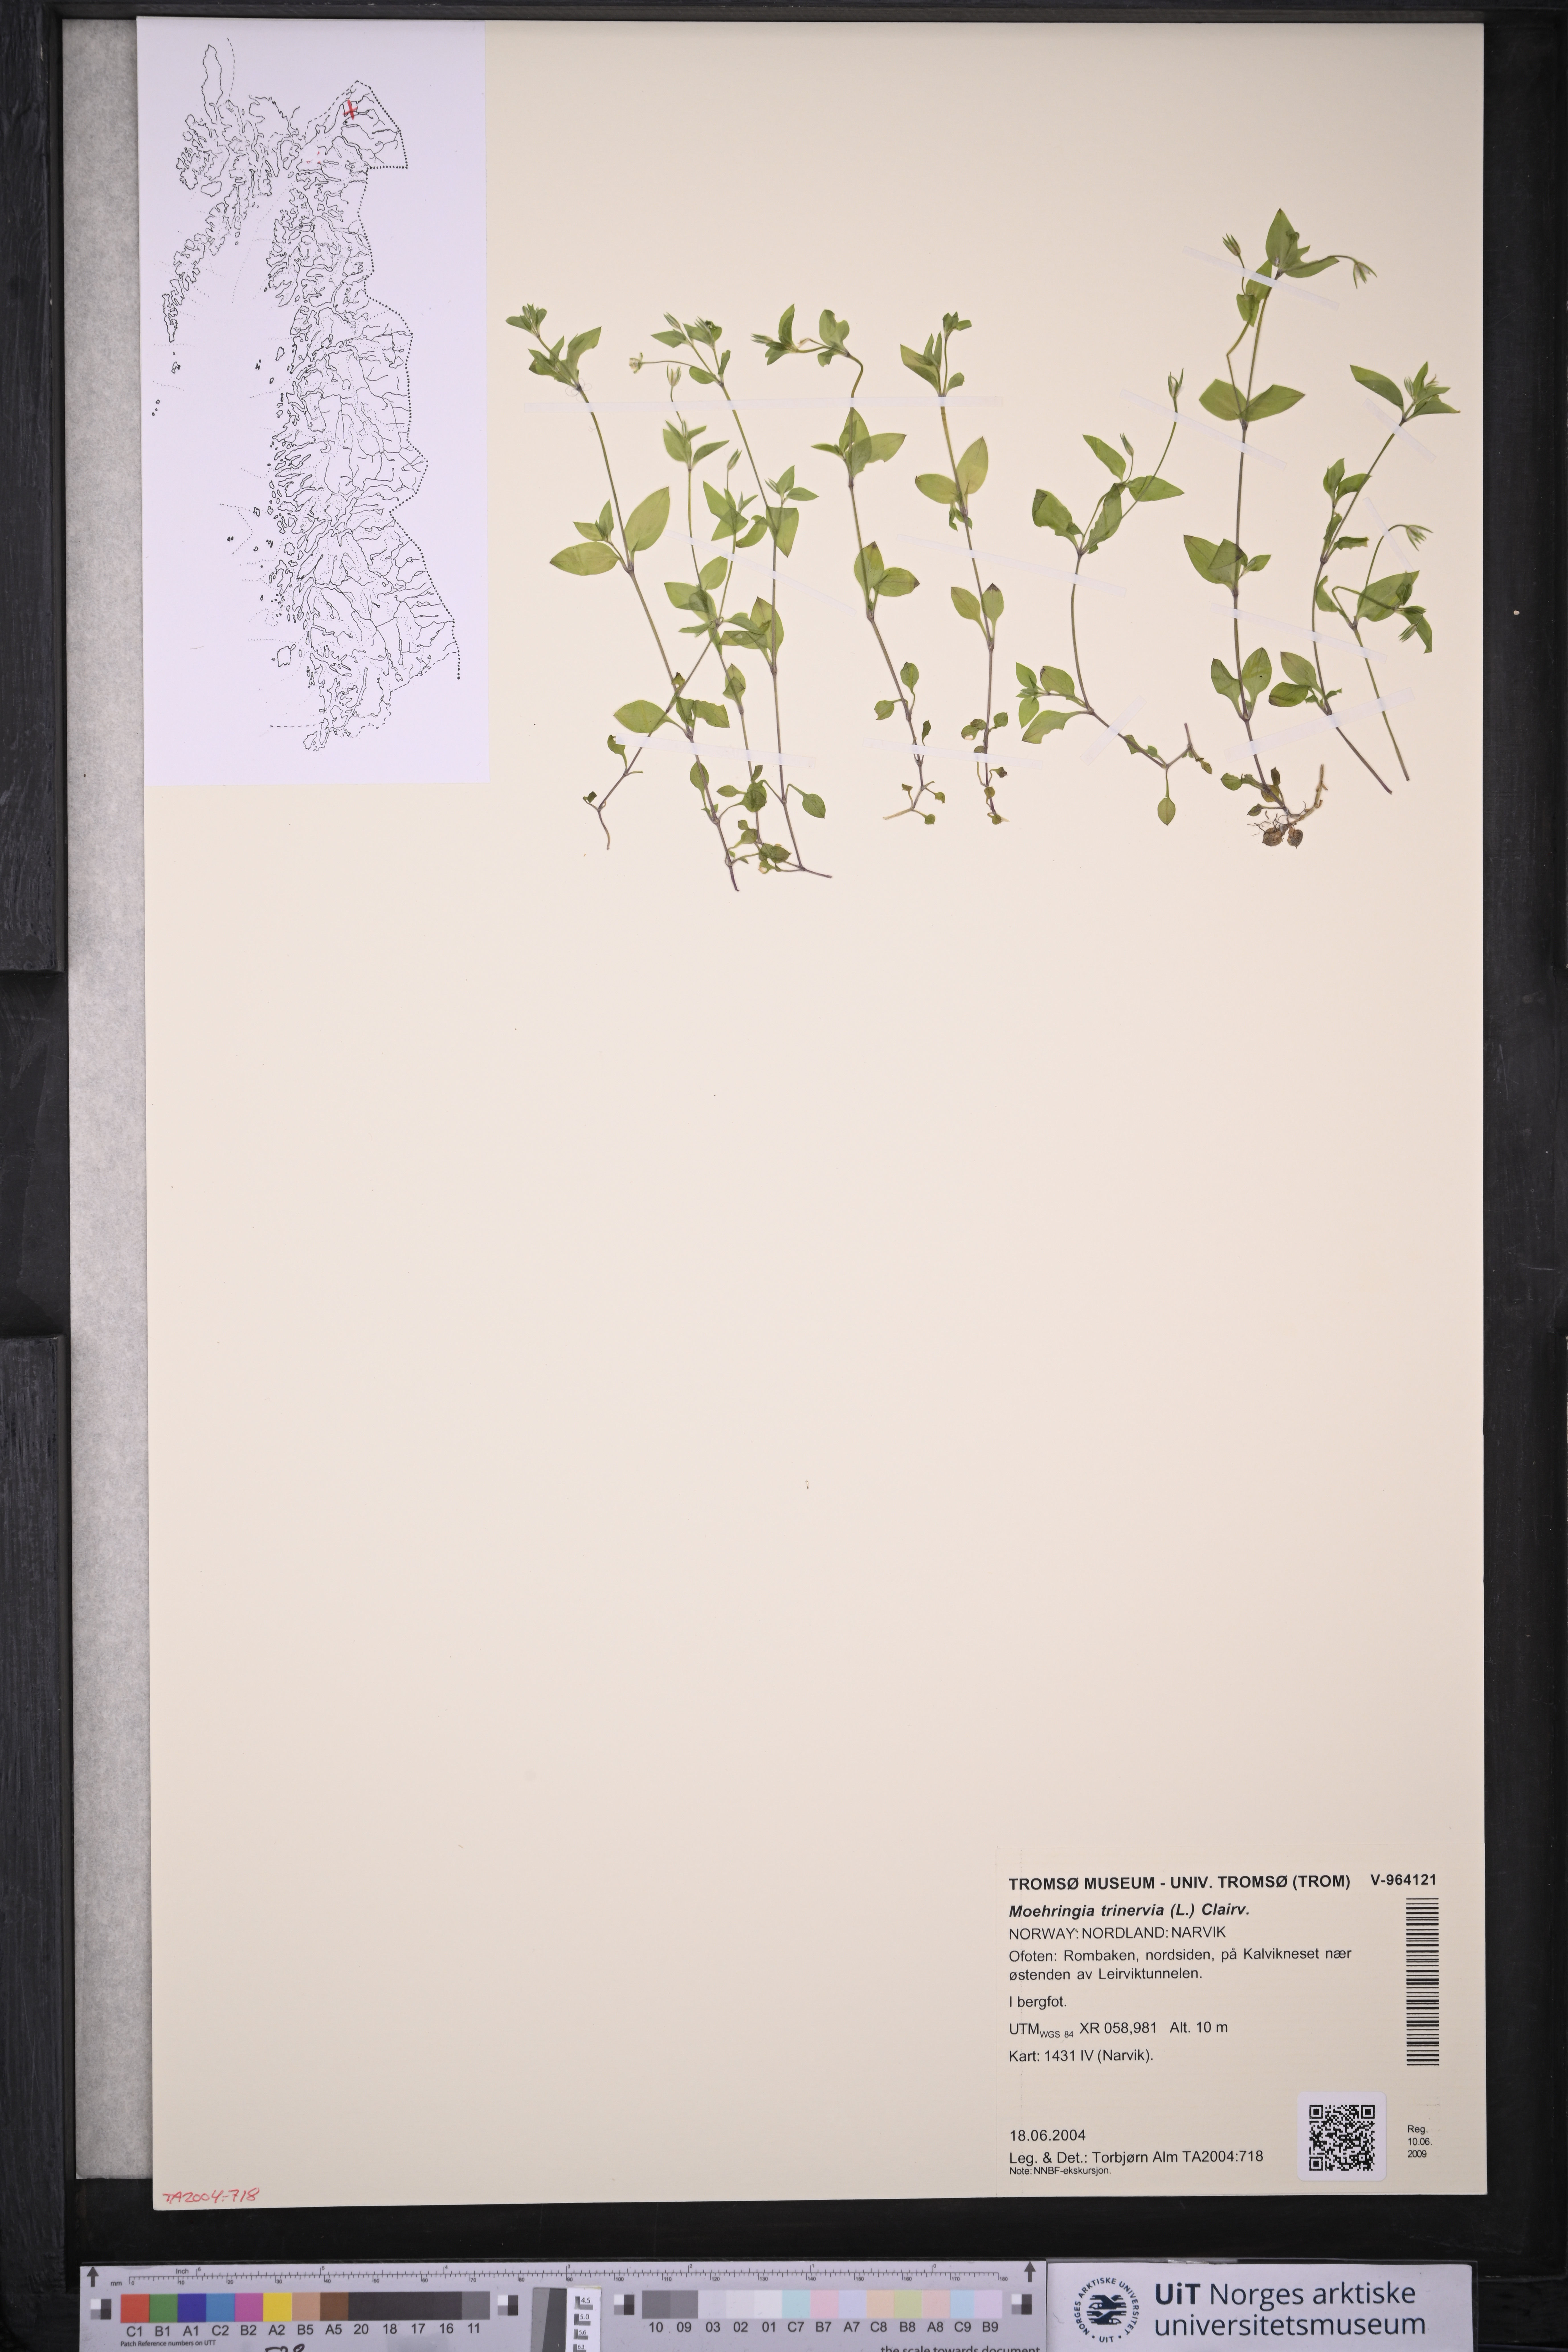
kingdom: Plantae
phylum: Tracheophyta
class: Magnoliopsida
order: Caryophyllales
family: Caryophyllaceae
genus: Moehringia
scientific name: Moehringia trinervia
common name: Three-nerved sandwort
